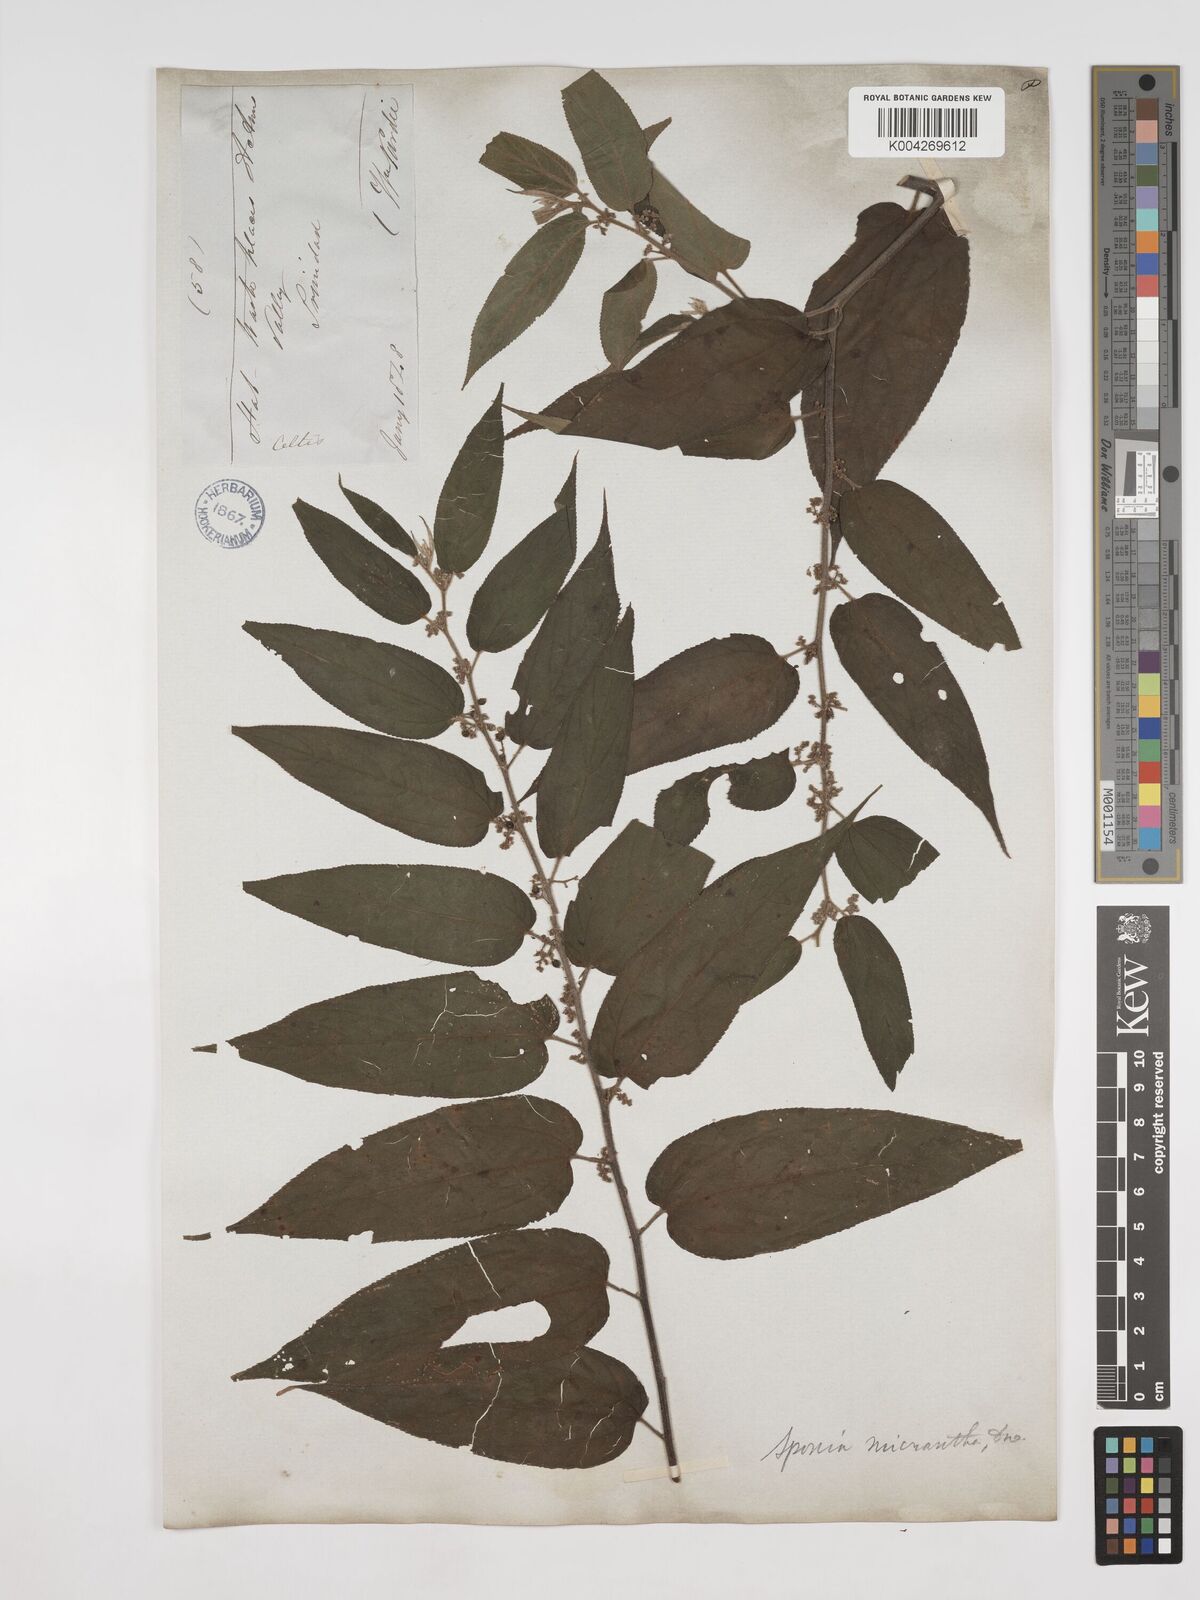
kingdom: Plantae
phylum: Tracheophyta
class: Magnoliopsida
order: Rosales
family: Cannabaceae
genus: Trema
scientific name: Trema micranthum
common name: Jamaican nettletree
